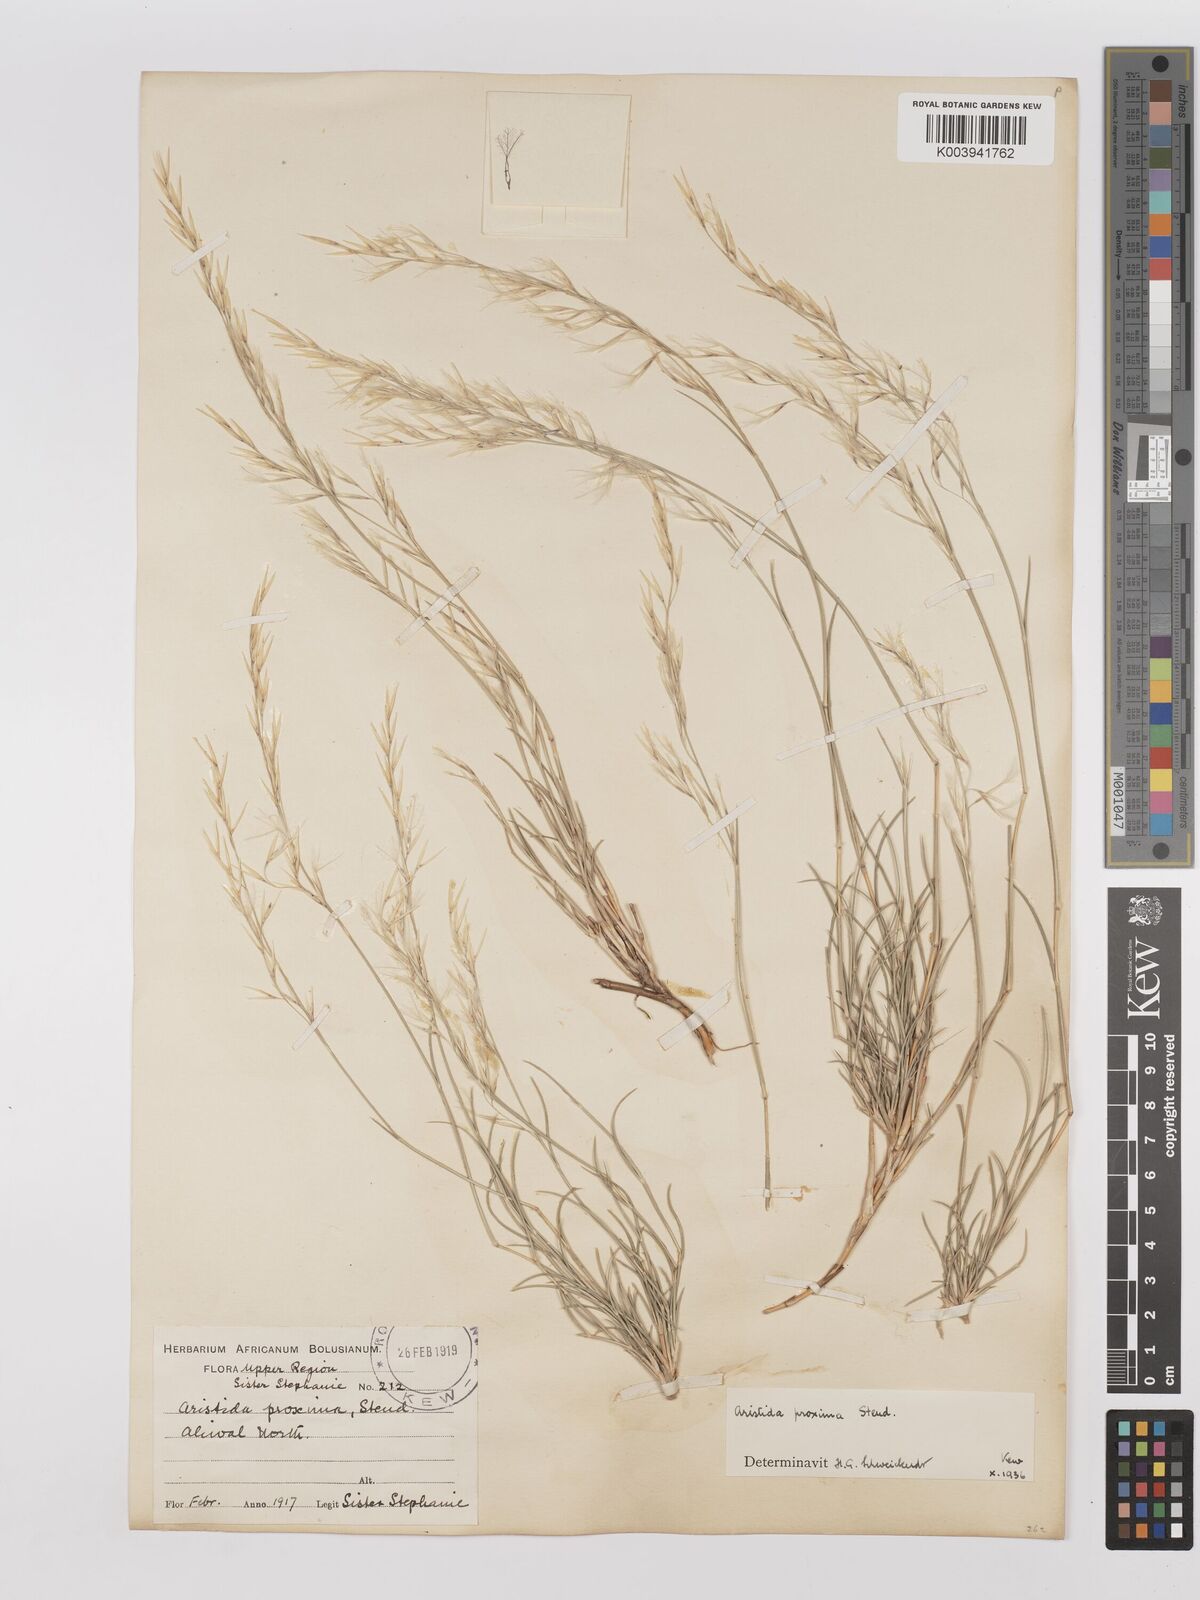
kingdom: Plantae
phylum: Tracheophyta
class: Liliopsida
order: Poales
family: Poaceae
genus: Stipagrostis
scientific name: Stipagrostis proxima
